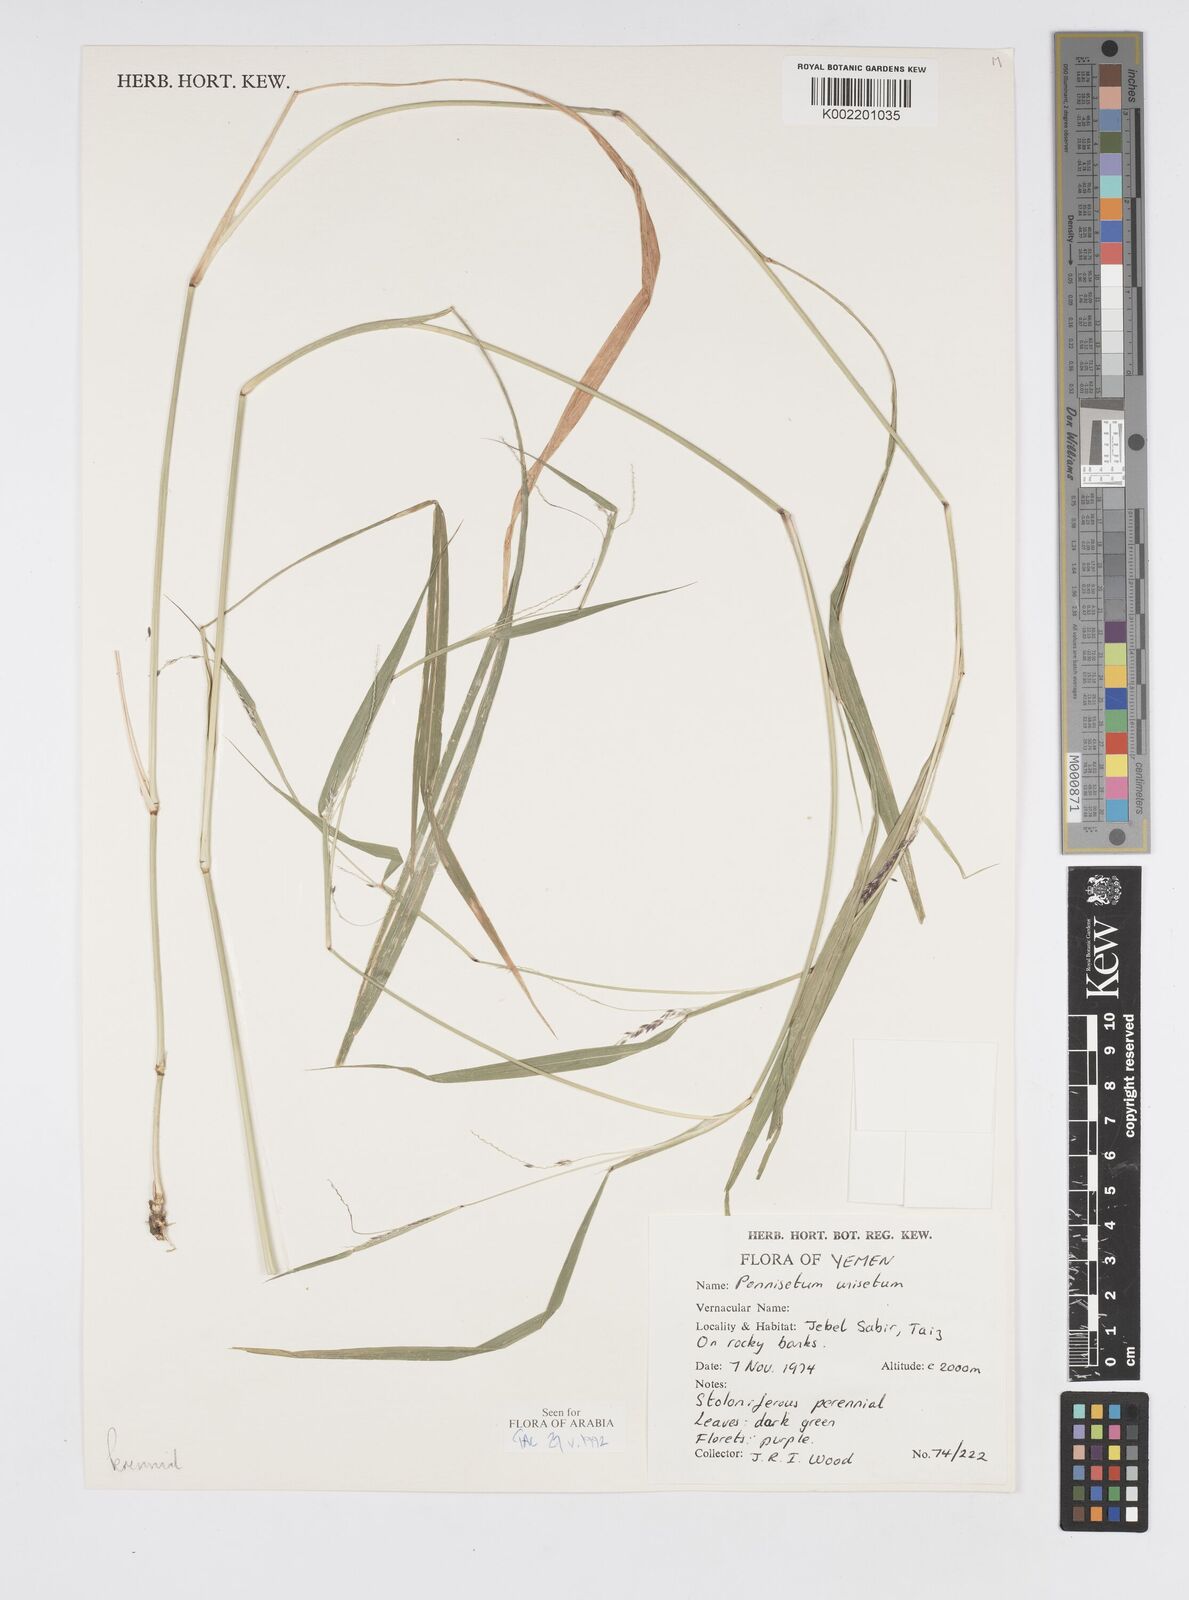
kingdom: Plantae
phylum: Tracheophyta
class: Liliopsida
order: Poales
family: Poaceae
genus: Cenchrus
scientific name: Cenchrus unisetus
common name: Natal grass
